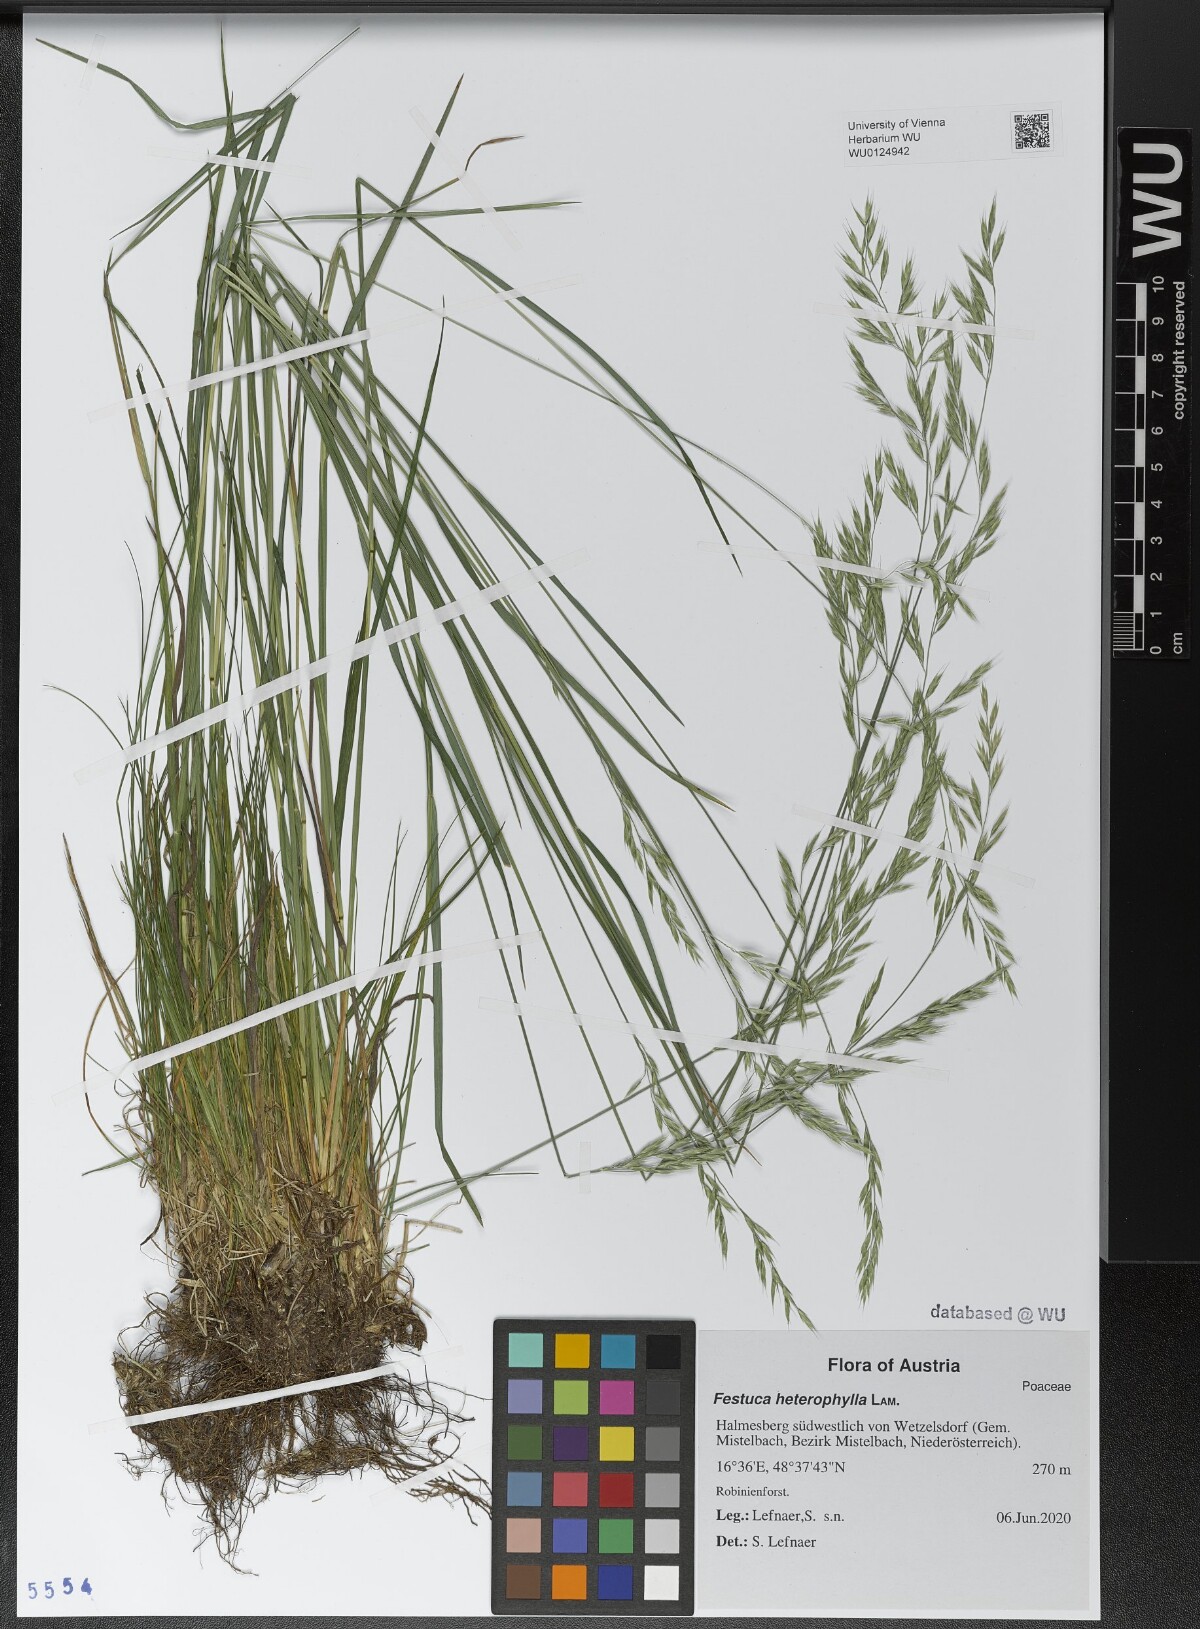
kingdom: Plantae
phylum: Tracheophyta
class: Liliopsida
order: Poales
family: Poaceae
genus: Festuca
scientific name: Festuca heterophylla
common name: Various-leaved fescue
